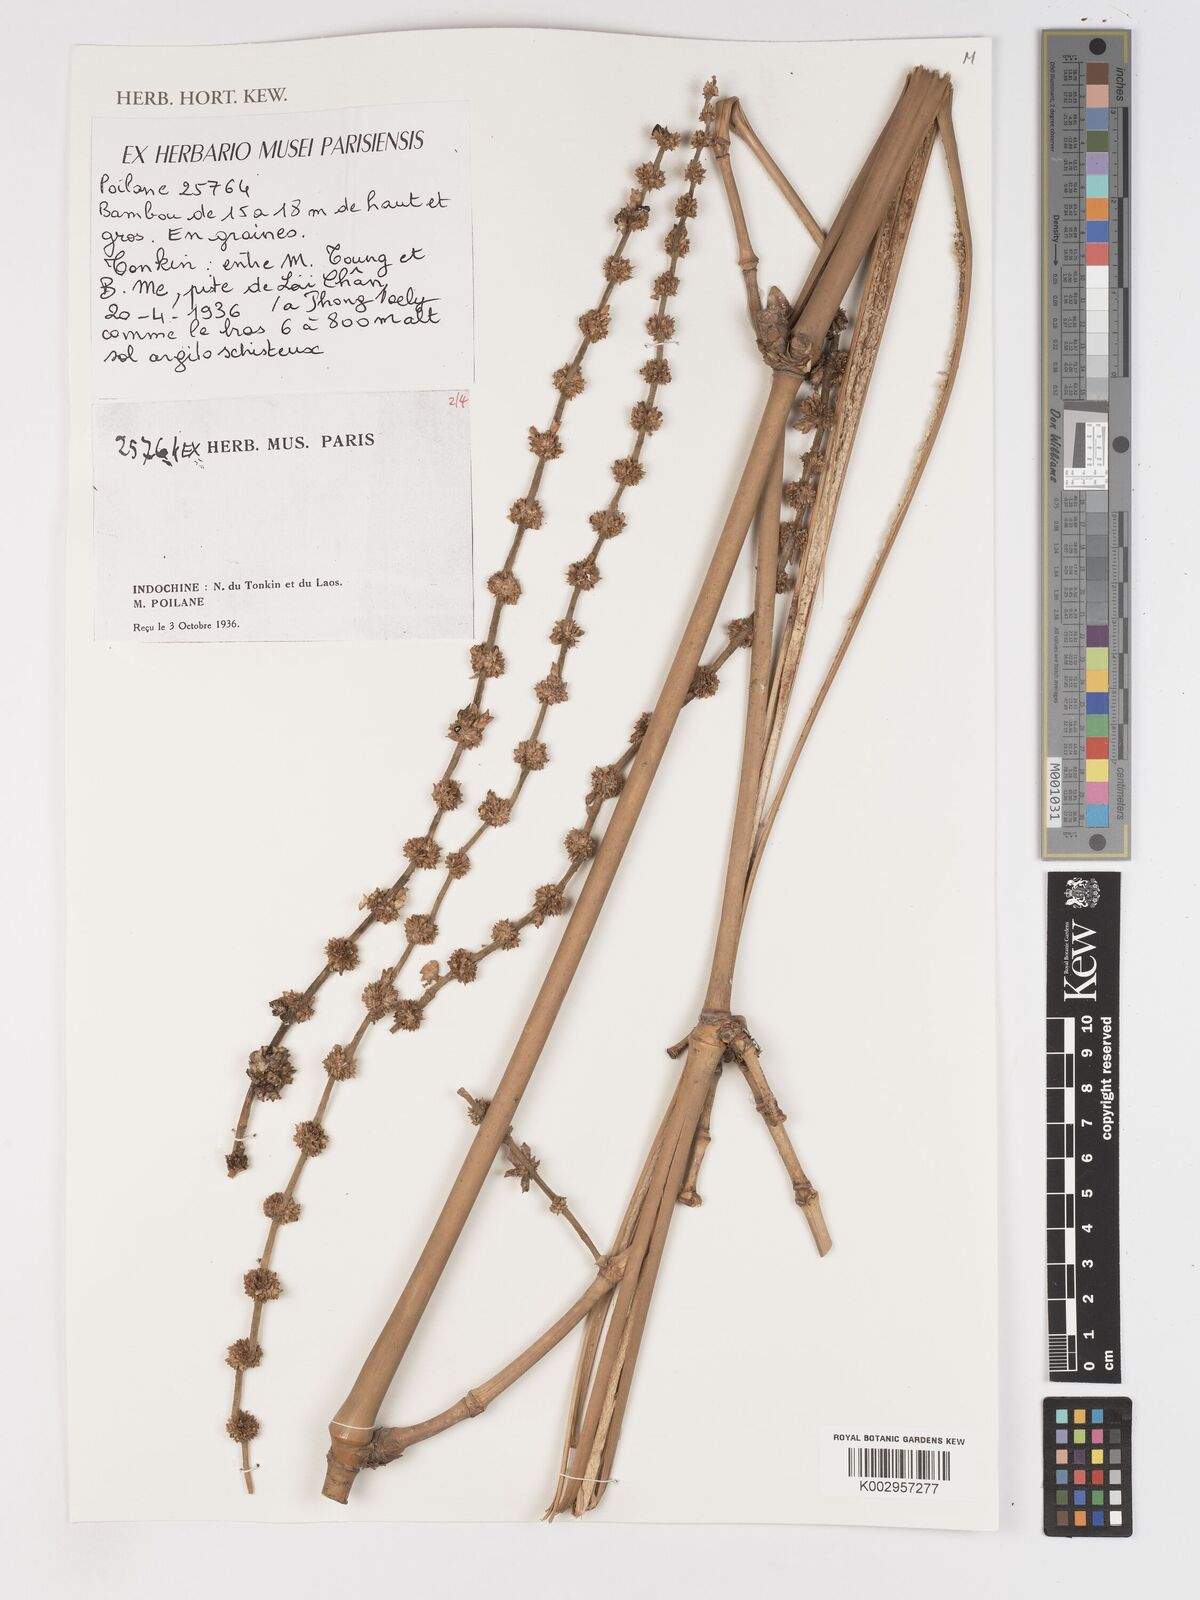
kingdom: Plantae
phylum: Tracheophyta
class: Liliopsida
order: Poales
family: Poaceae
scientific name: Poaceae
